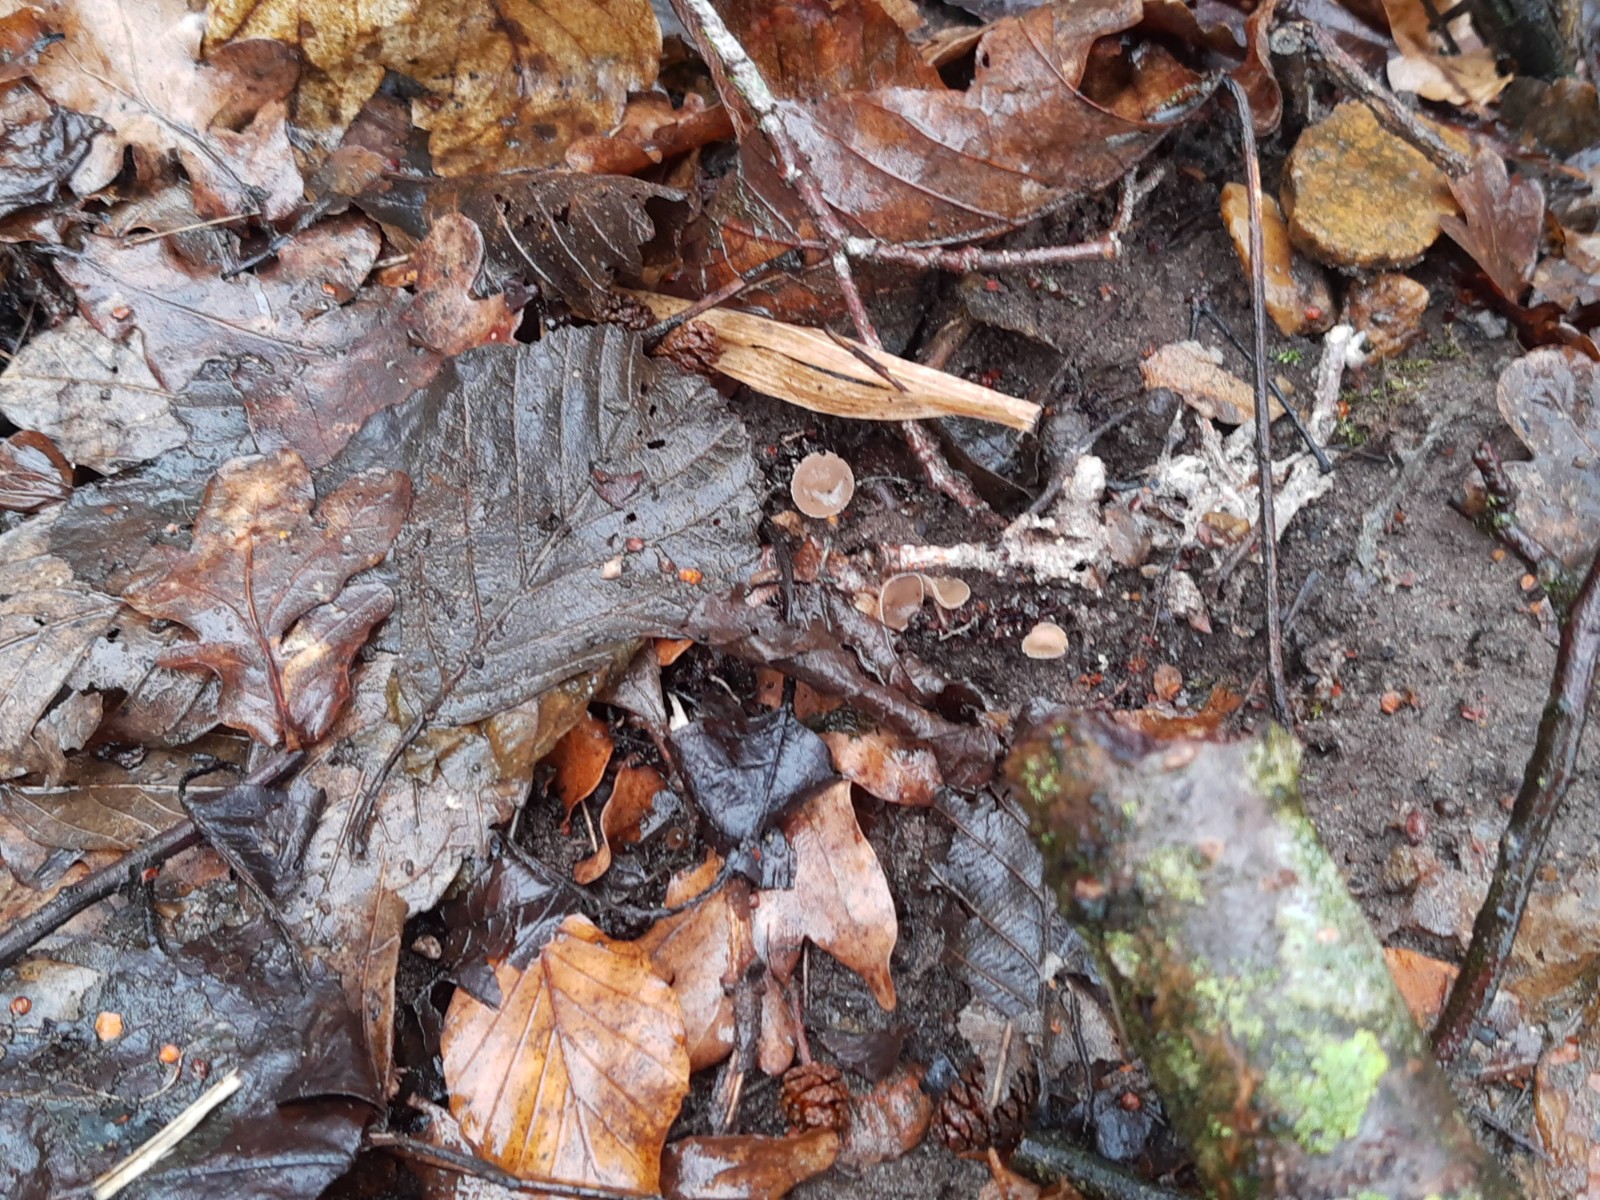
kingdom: Fungi
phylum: Ascomycota
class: Leotiomycetes
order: Helotiales
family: Sclerotiniaceae
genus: Ciboria
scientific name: Ciboria amentacea
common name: ellerakle-knoldskive
